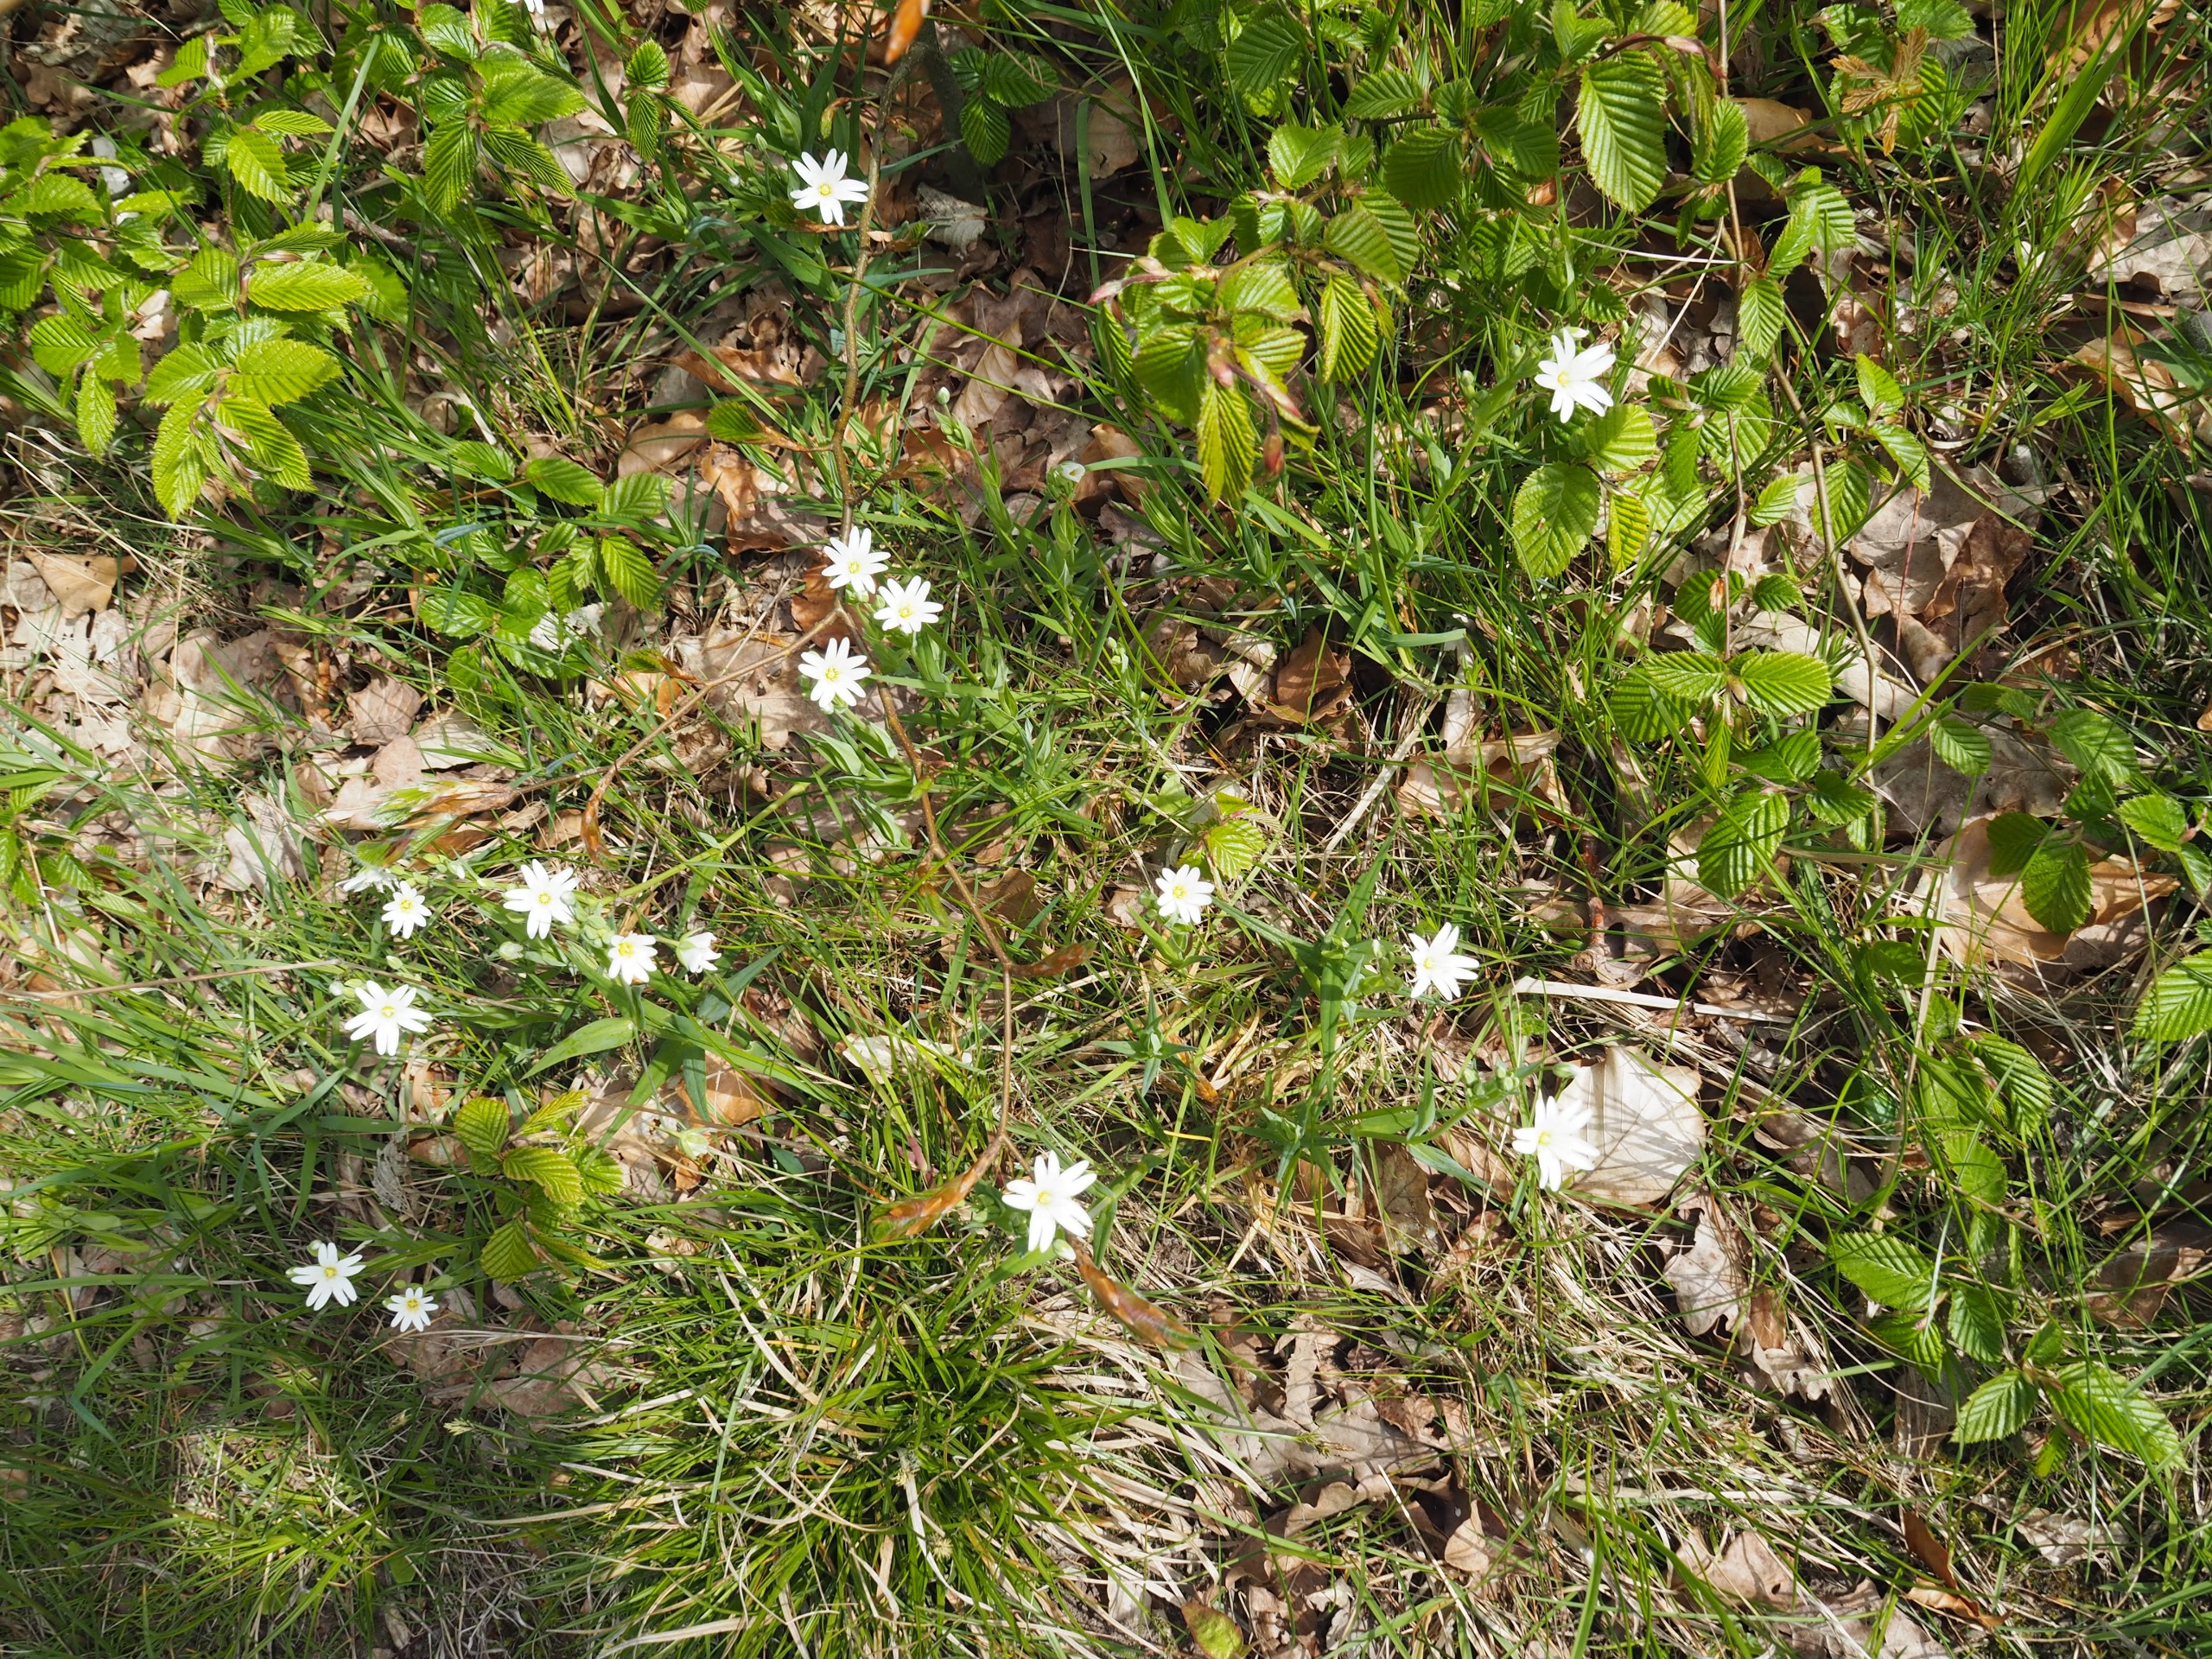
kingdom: Plantae
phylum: Tracheophyta
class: Magnoliopsida
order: Caryophyllales
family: Caryophyllaceae
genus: Rabelera
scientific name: Rabelera holostea
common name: Stor fladstjerne
